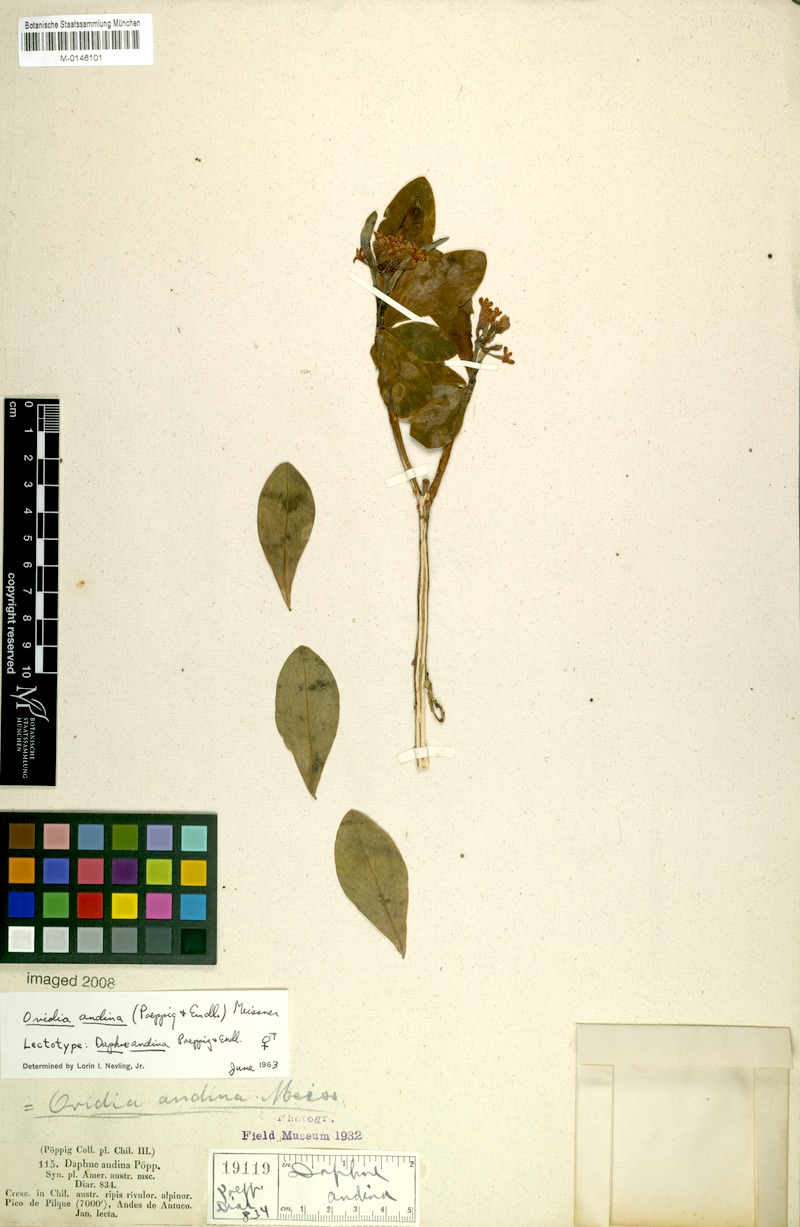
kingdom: Plantae
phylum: Tracheophyta
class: Magnoliopsida
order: Malvales
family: Thymelaeaceae
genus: Ovidia
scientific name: Ovidia andina
